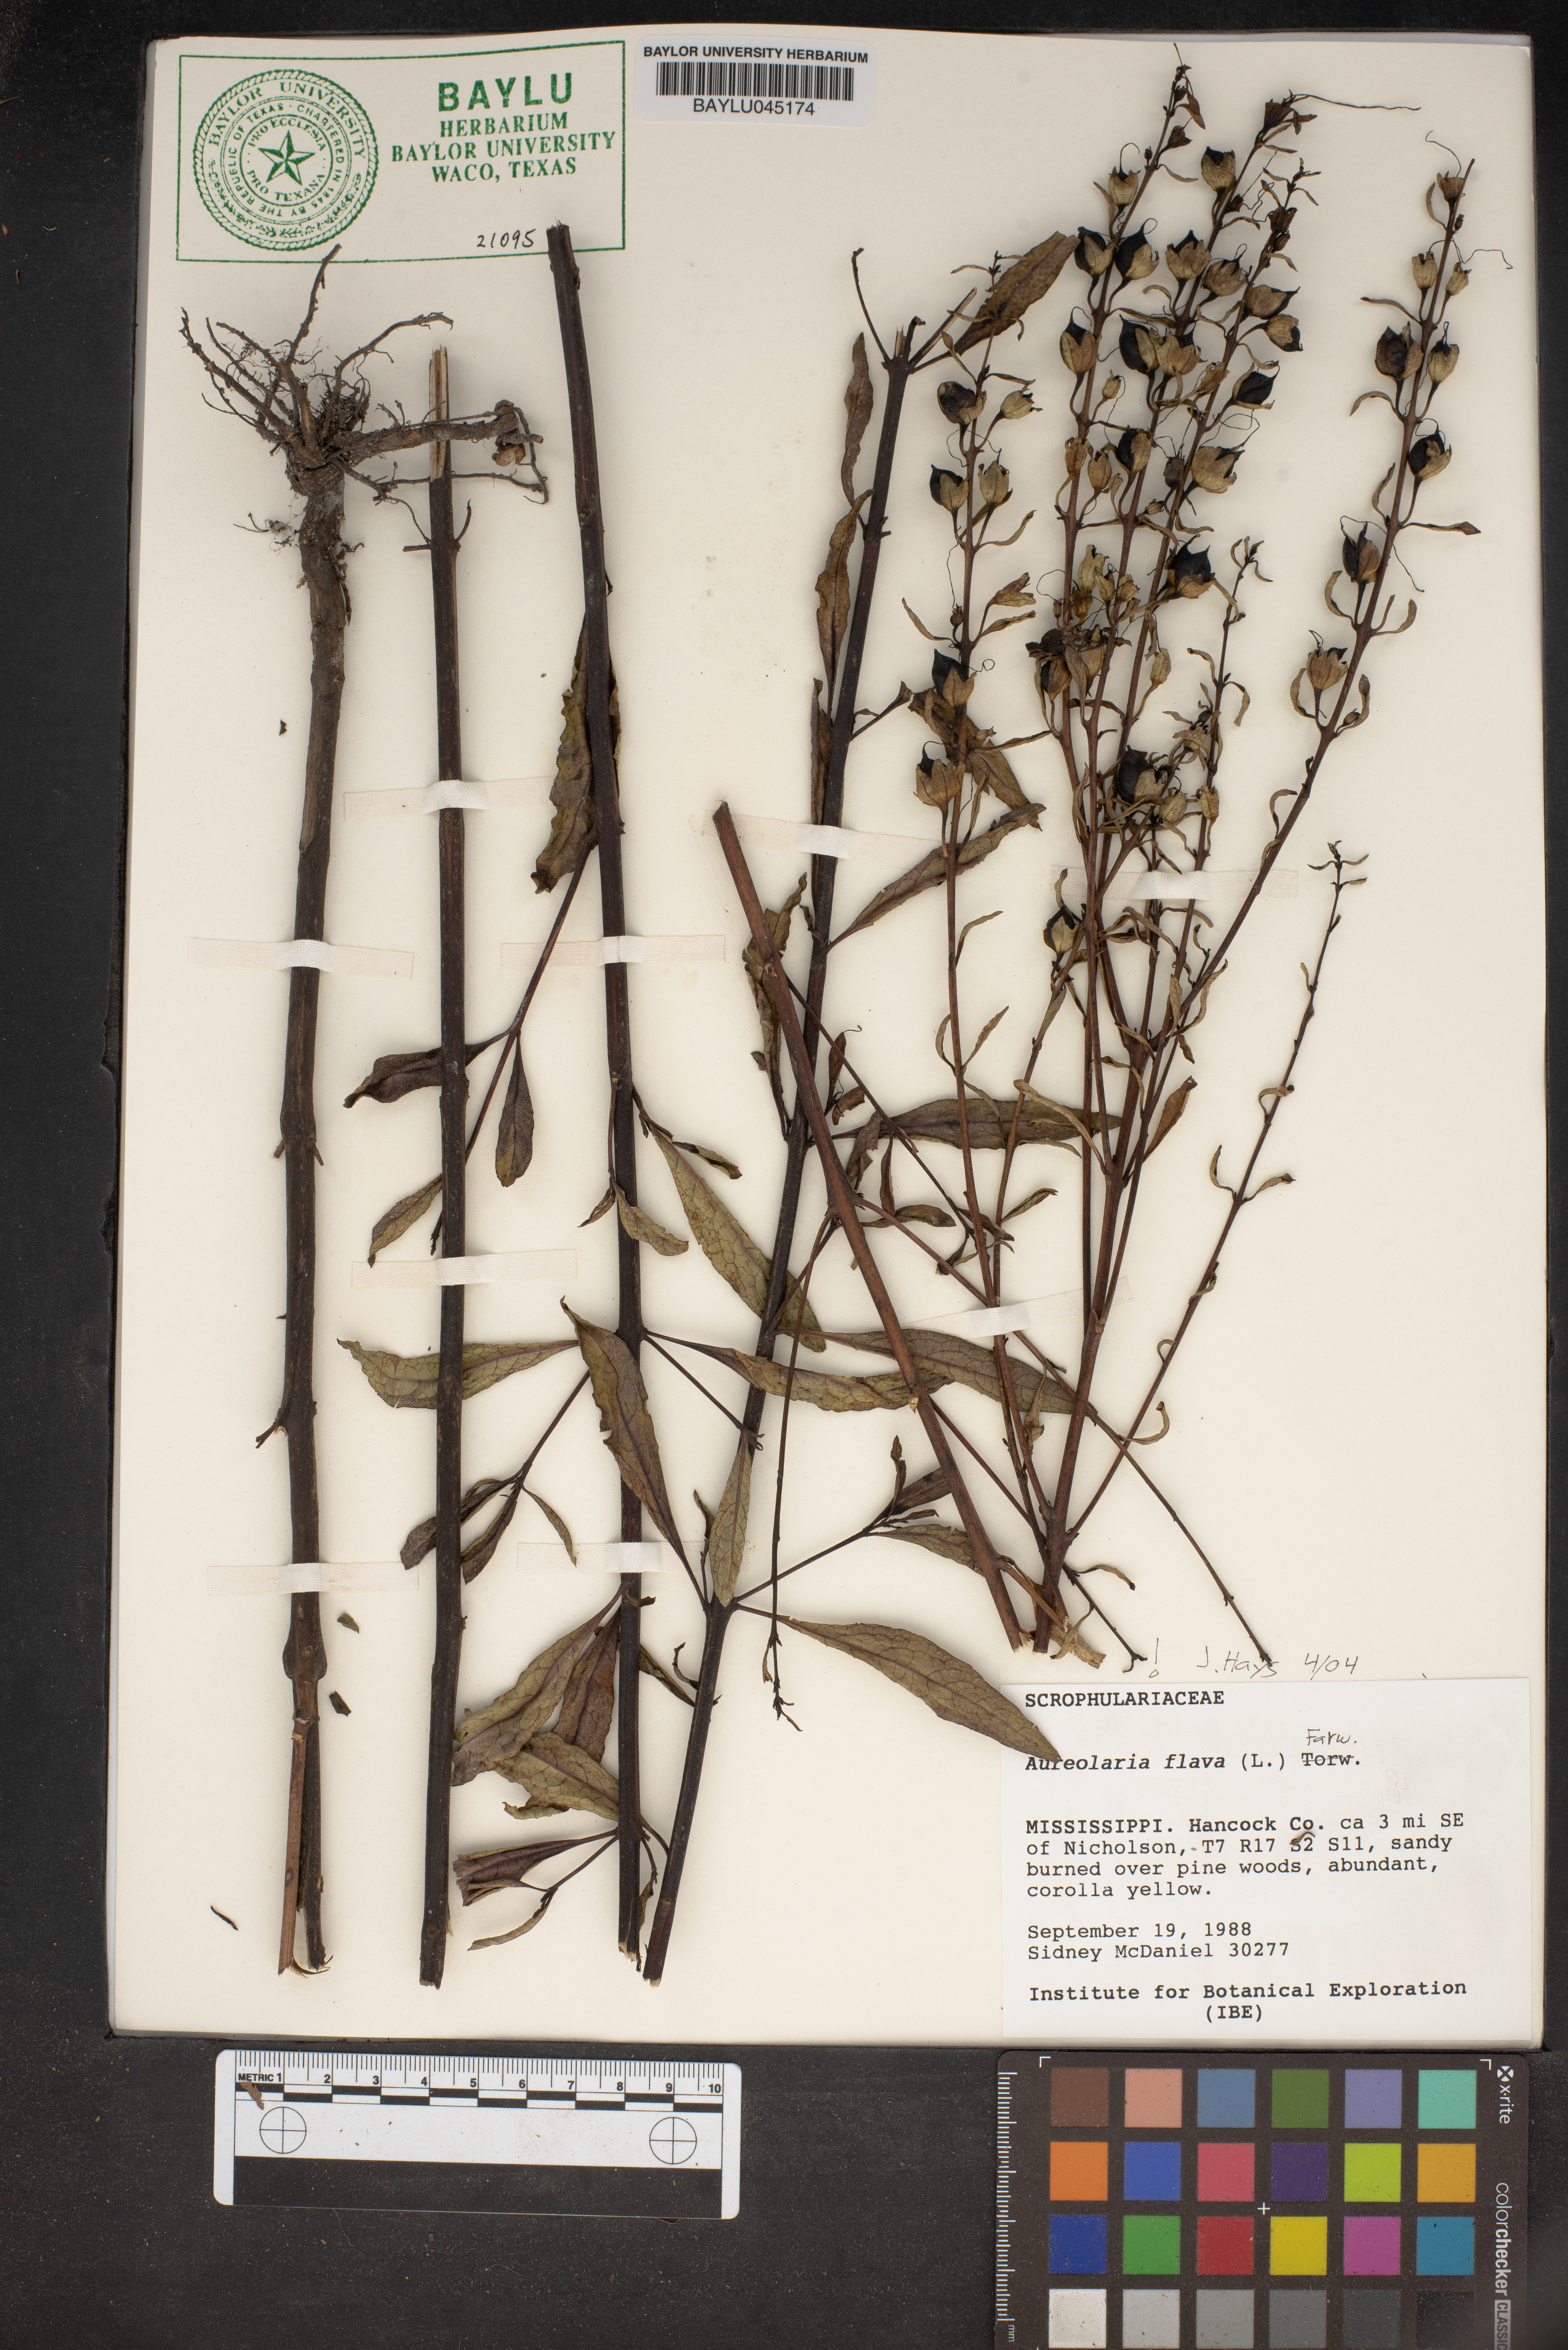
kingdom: Plantae
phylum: Tracheophyta
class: Magnoliopsida
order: Lamiales
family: Orobanchaceae
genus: Aureolaria
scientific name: Aureolaria flava
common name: Smooth false foxglove
